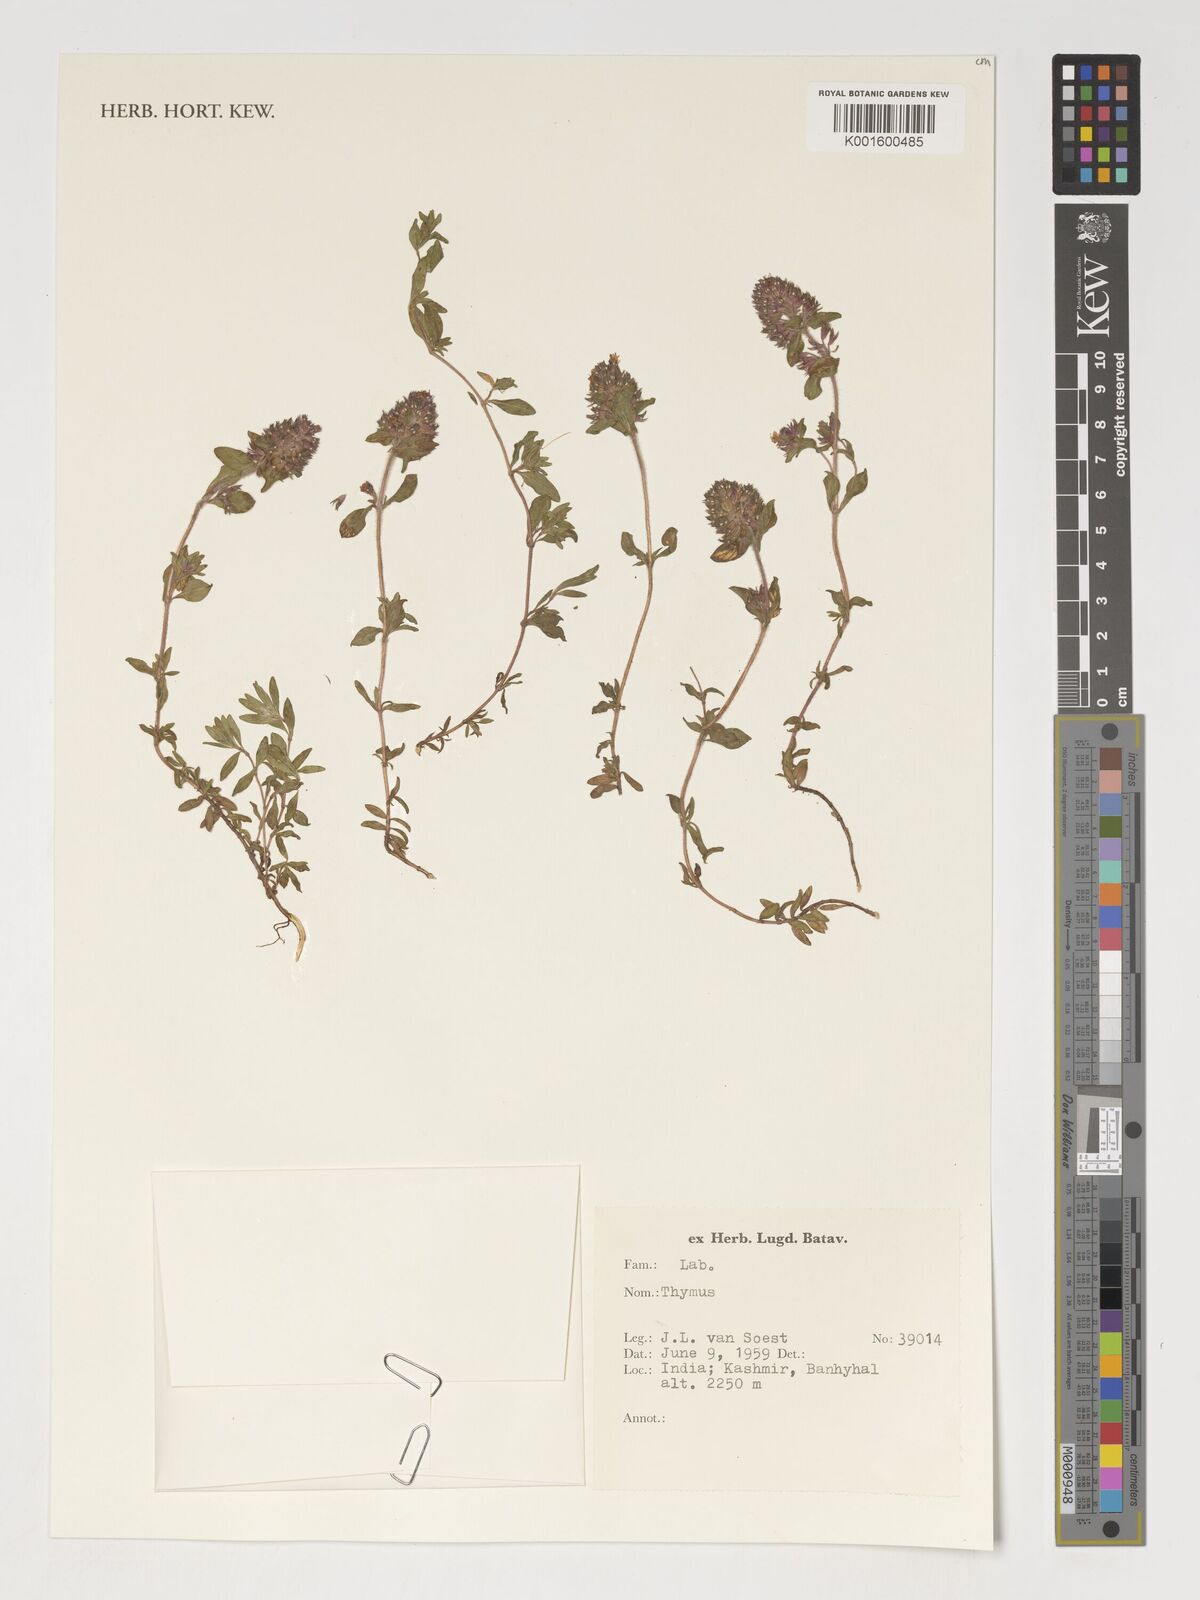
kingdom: Plantae
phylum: Tracheophyta
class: Magnoliopsida
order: Lamiales
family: Lamiaceae
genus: Thymus
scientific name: Thymus
